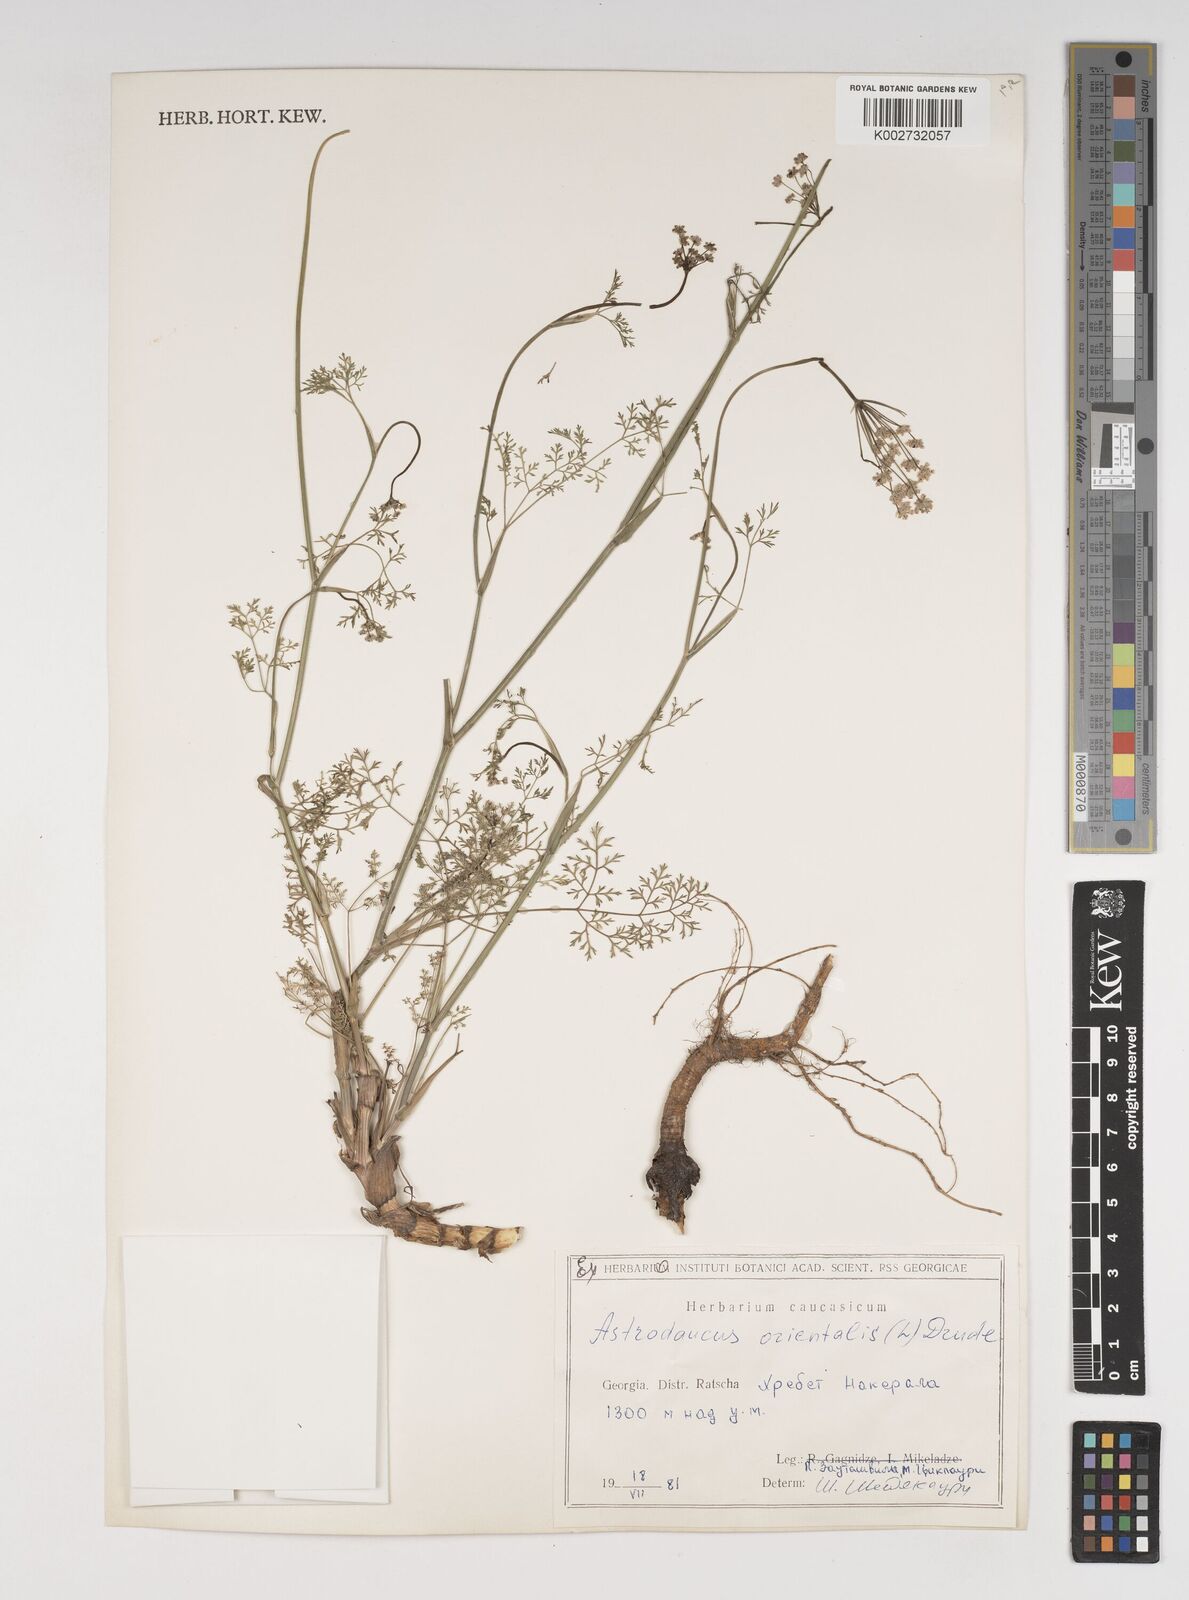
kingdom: Plantae
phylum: Tracheophyta
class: Magnoliopsida
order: Apiales
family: Apiaceae
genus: Astrodaucus
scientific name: Astrodaucus orientalis
